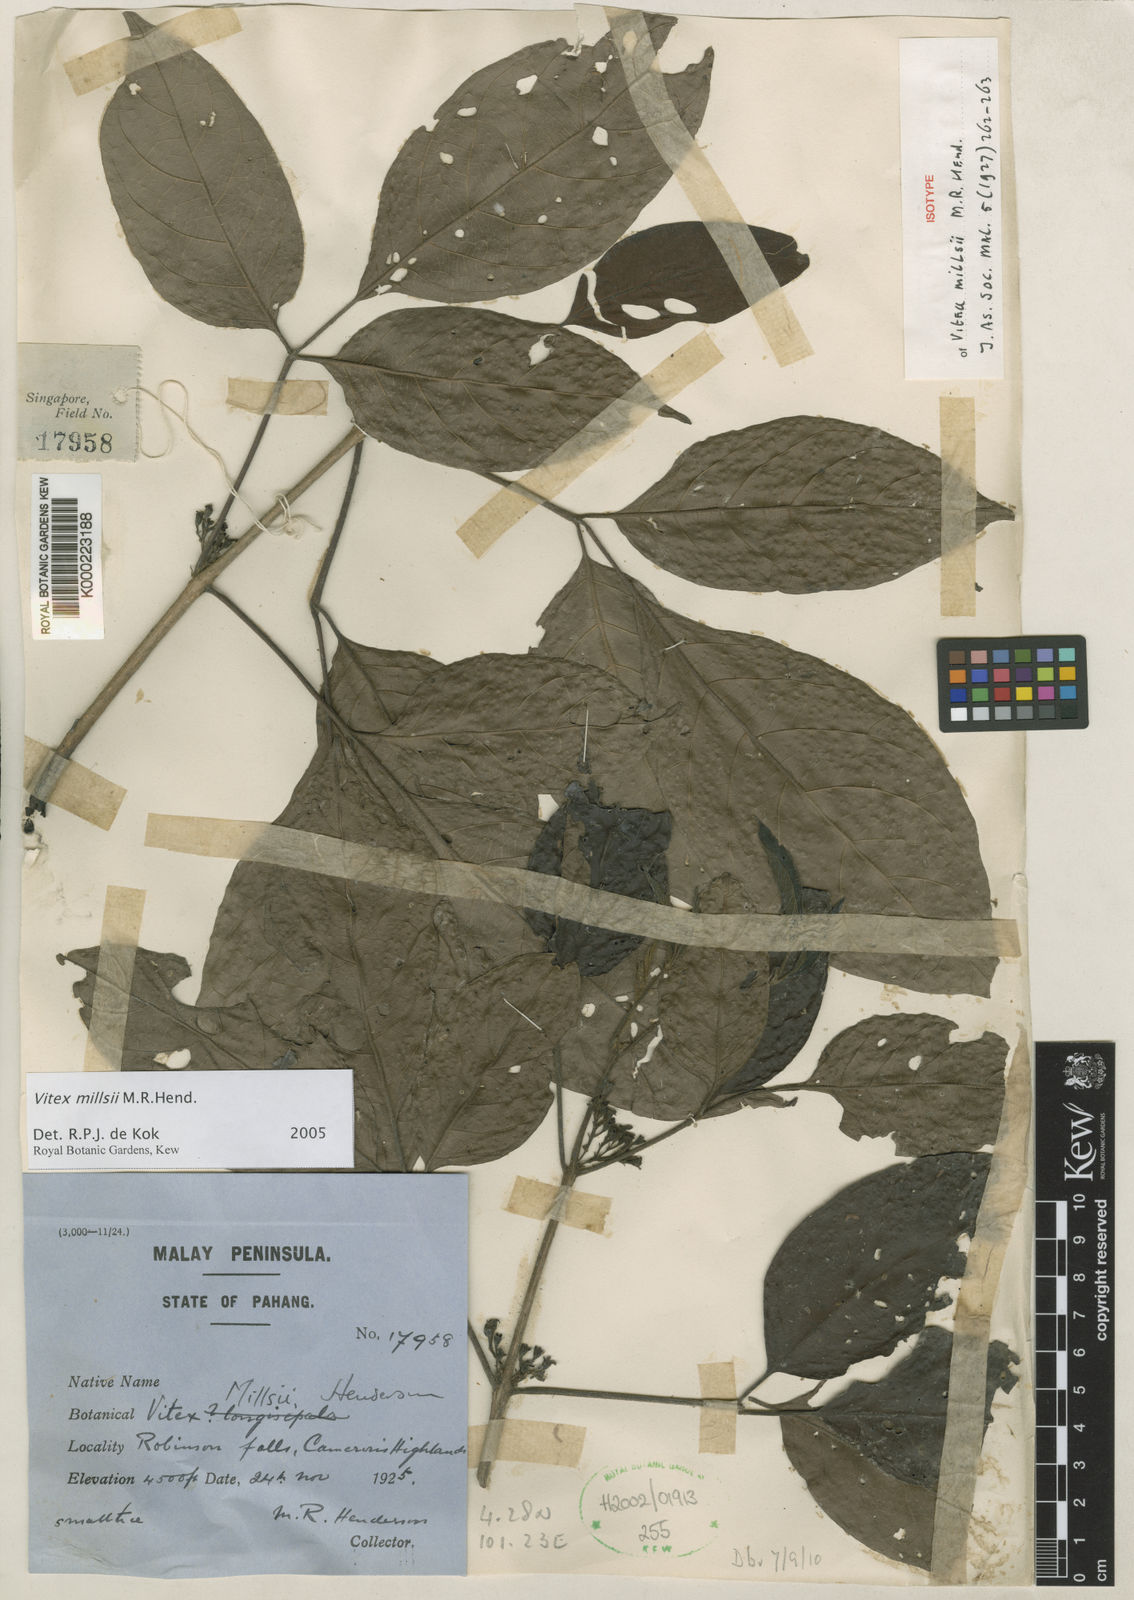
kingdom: Plantae
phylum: Tracheophyta
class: Magnoliopsida
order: Lamiales
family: Lamiaceae
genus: Vitex
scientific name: Vitex millsii
